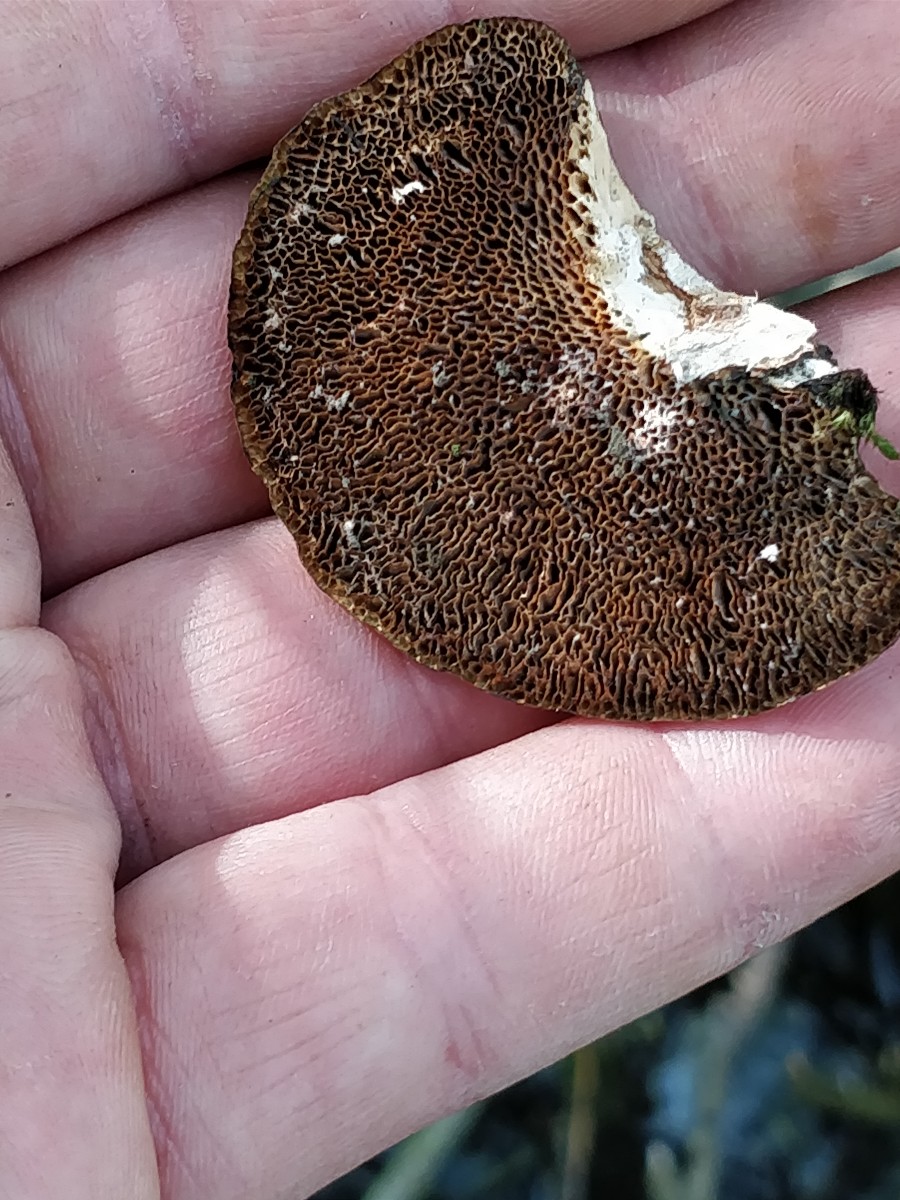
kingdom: Fungi
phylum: Basidiomycota
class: Agaricomycetes
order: Polyporales
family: Polyporaceae
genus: Daedaleopsis
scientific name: Daedaleopsis confragosa
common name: rødmende læderporesvamp
